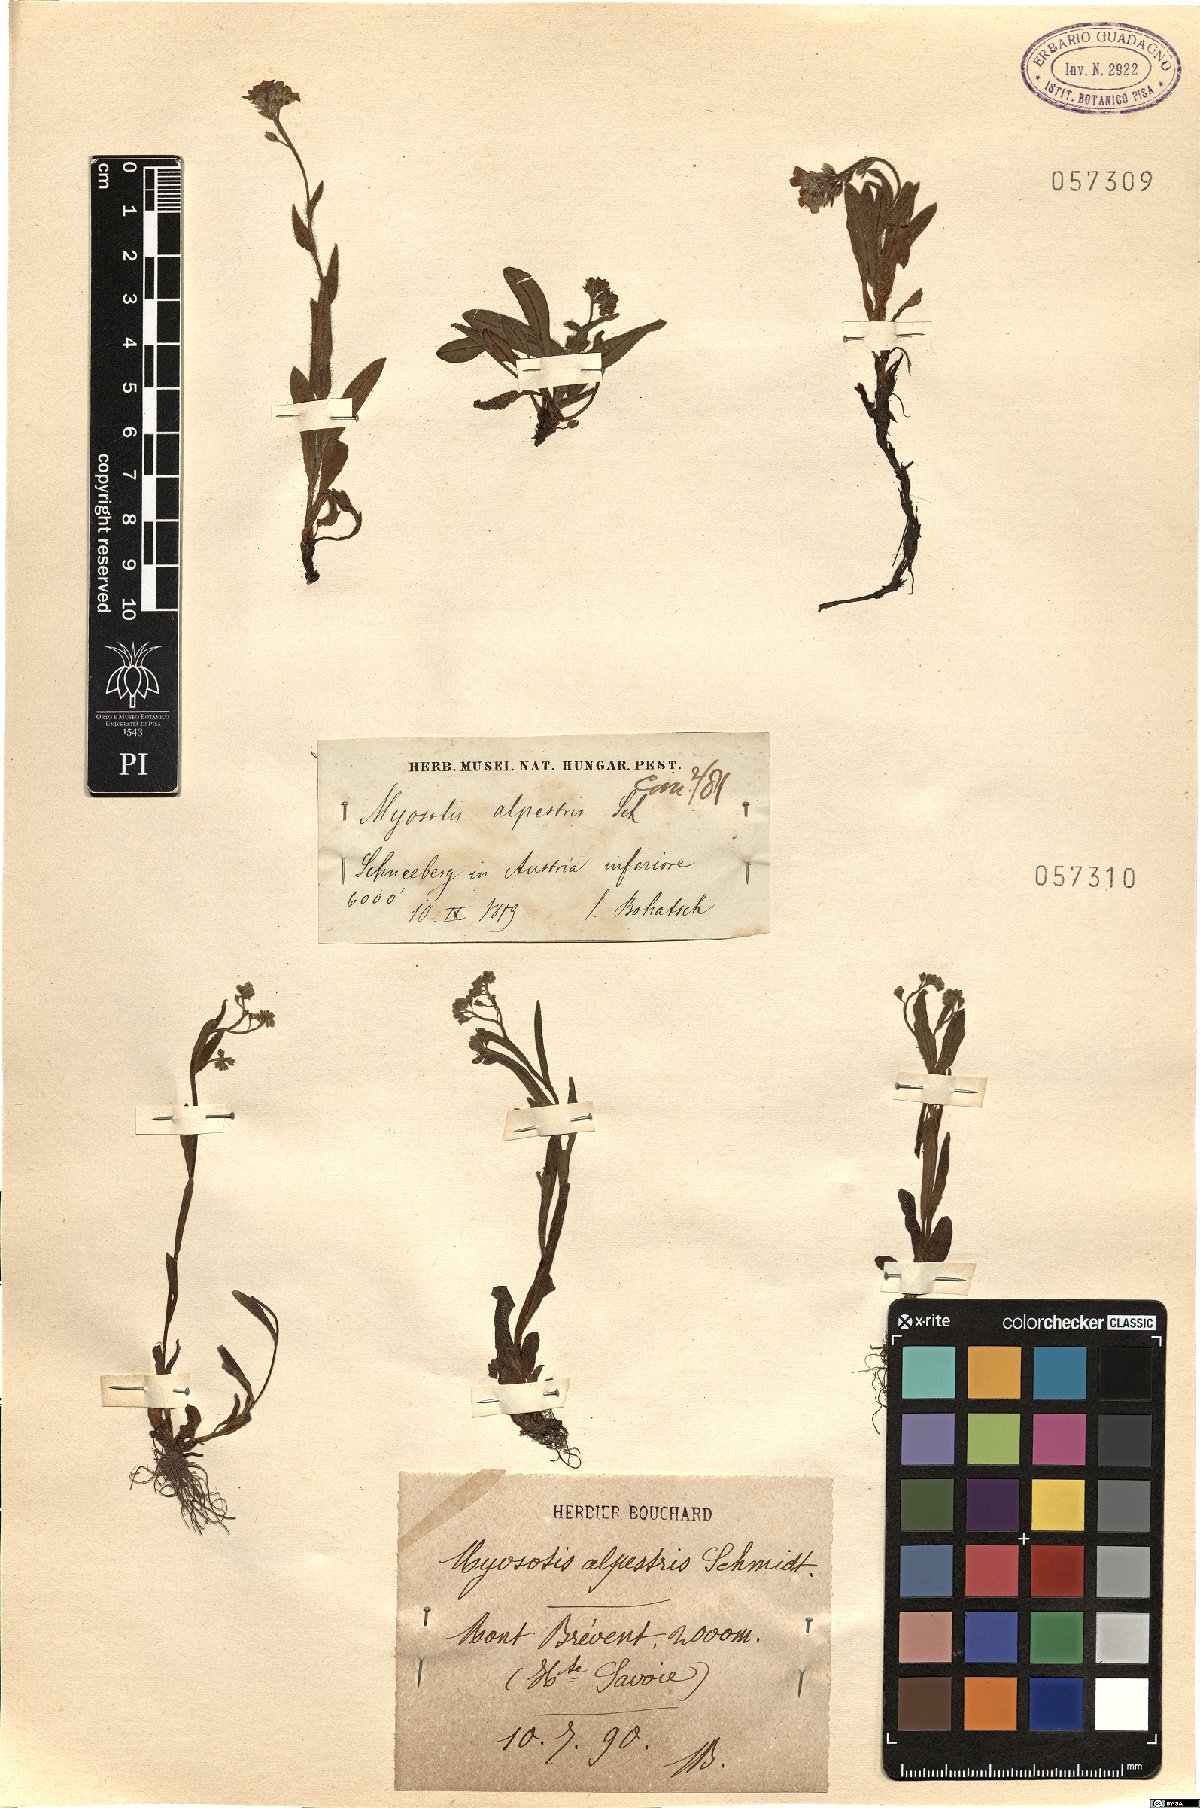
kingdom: Plantae
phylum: Tracheophyta
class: Magnoliopsida
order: Boraginales
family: Boraginaceae
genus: Myosotis
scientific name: Myosotis alpestris
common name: Alpine forget-me-not
